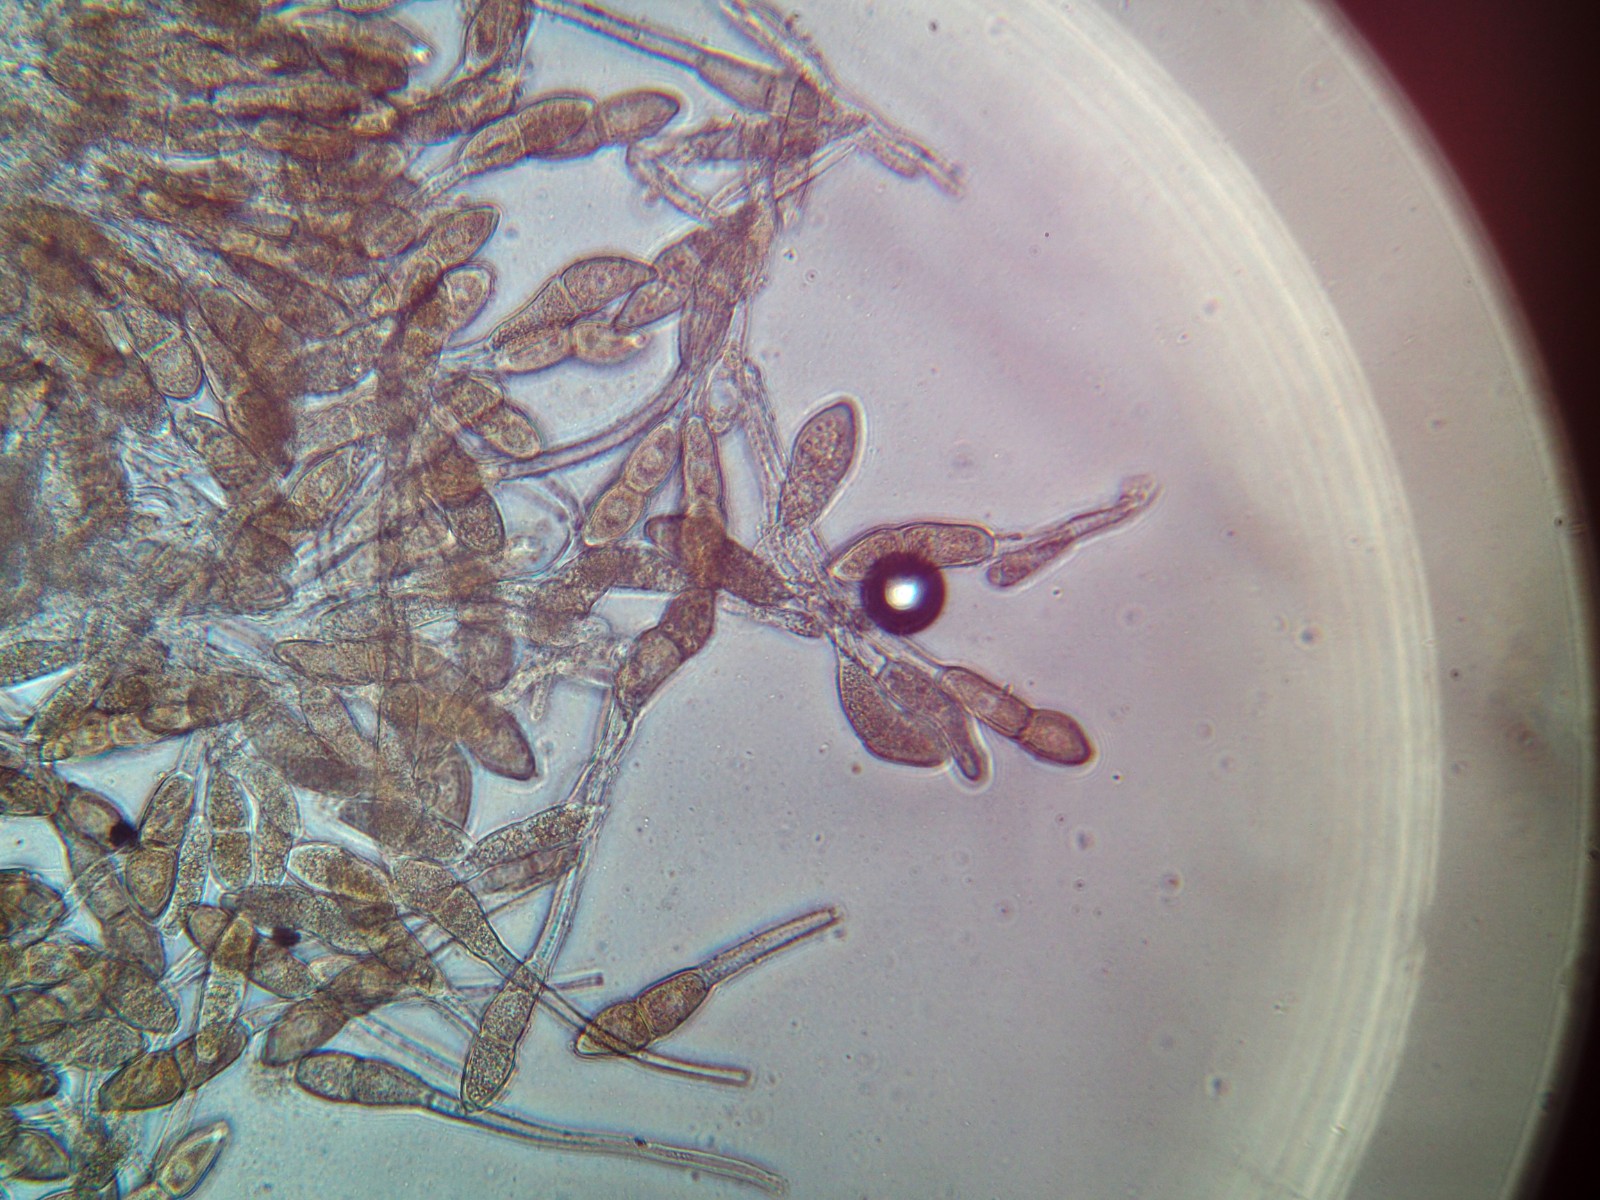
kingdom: Fungi
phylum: Basidiomycota
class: Pucciniomycetes
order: Pucciniales
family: Pucciniaceae
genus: Puccinia
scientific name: Puccinia malvacearum
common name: stokrose-tvecellerust
